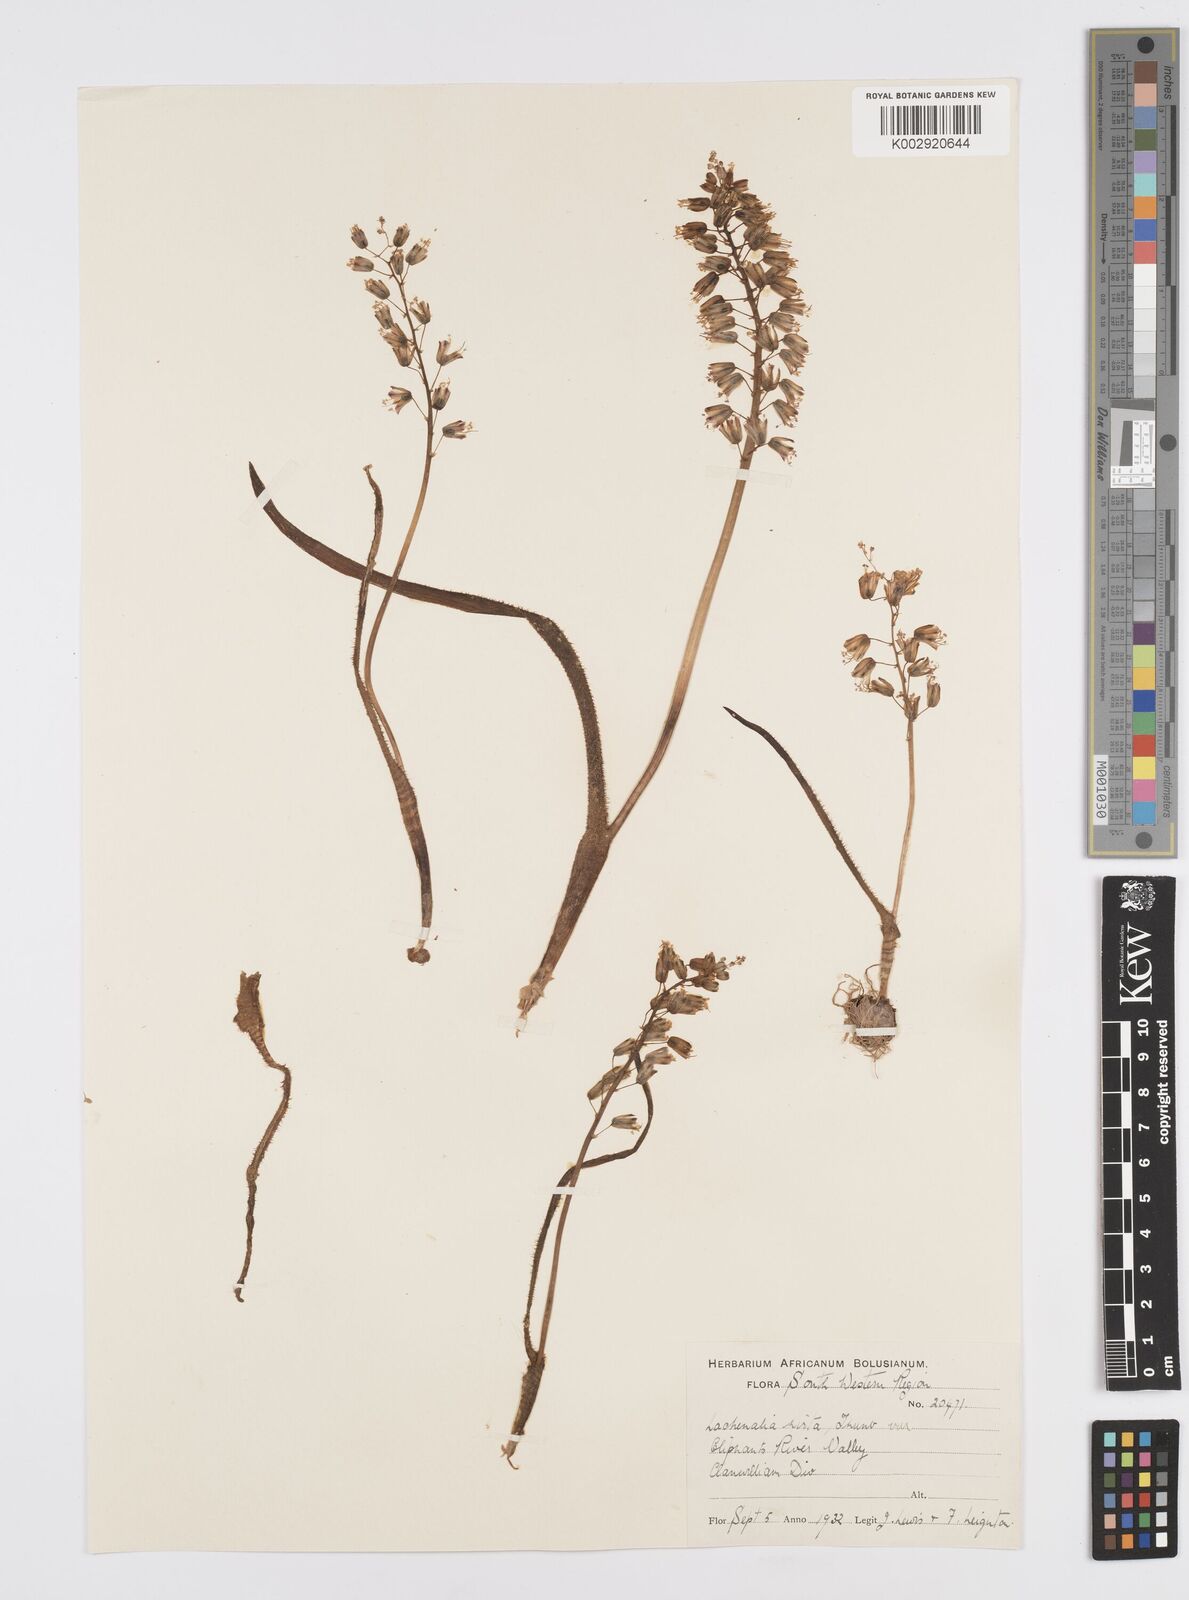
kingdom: Plantae
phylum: Tracheophyta
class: Liliopsida
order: Asparagales
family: Asparagaceae
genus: Lachenalia
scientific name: Lachenalia hirta
